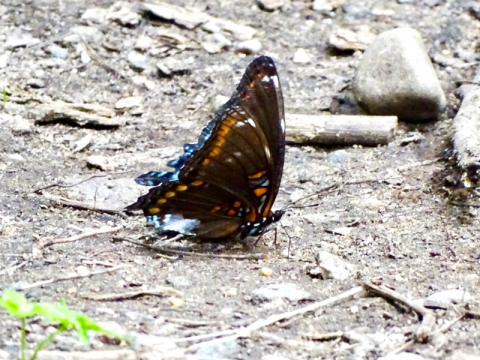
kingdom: Animalia
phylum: Arthropoda
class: Insecta
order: Lepidoptera
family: Nymphalidae
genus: Limenitis
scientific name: Limenitis arthemis
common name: Red-spotted Admiral
